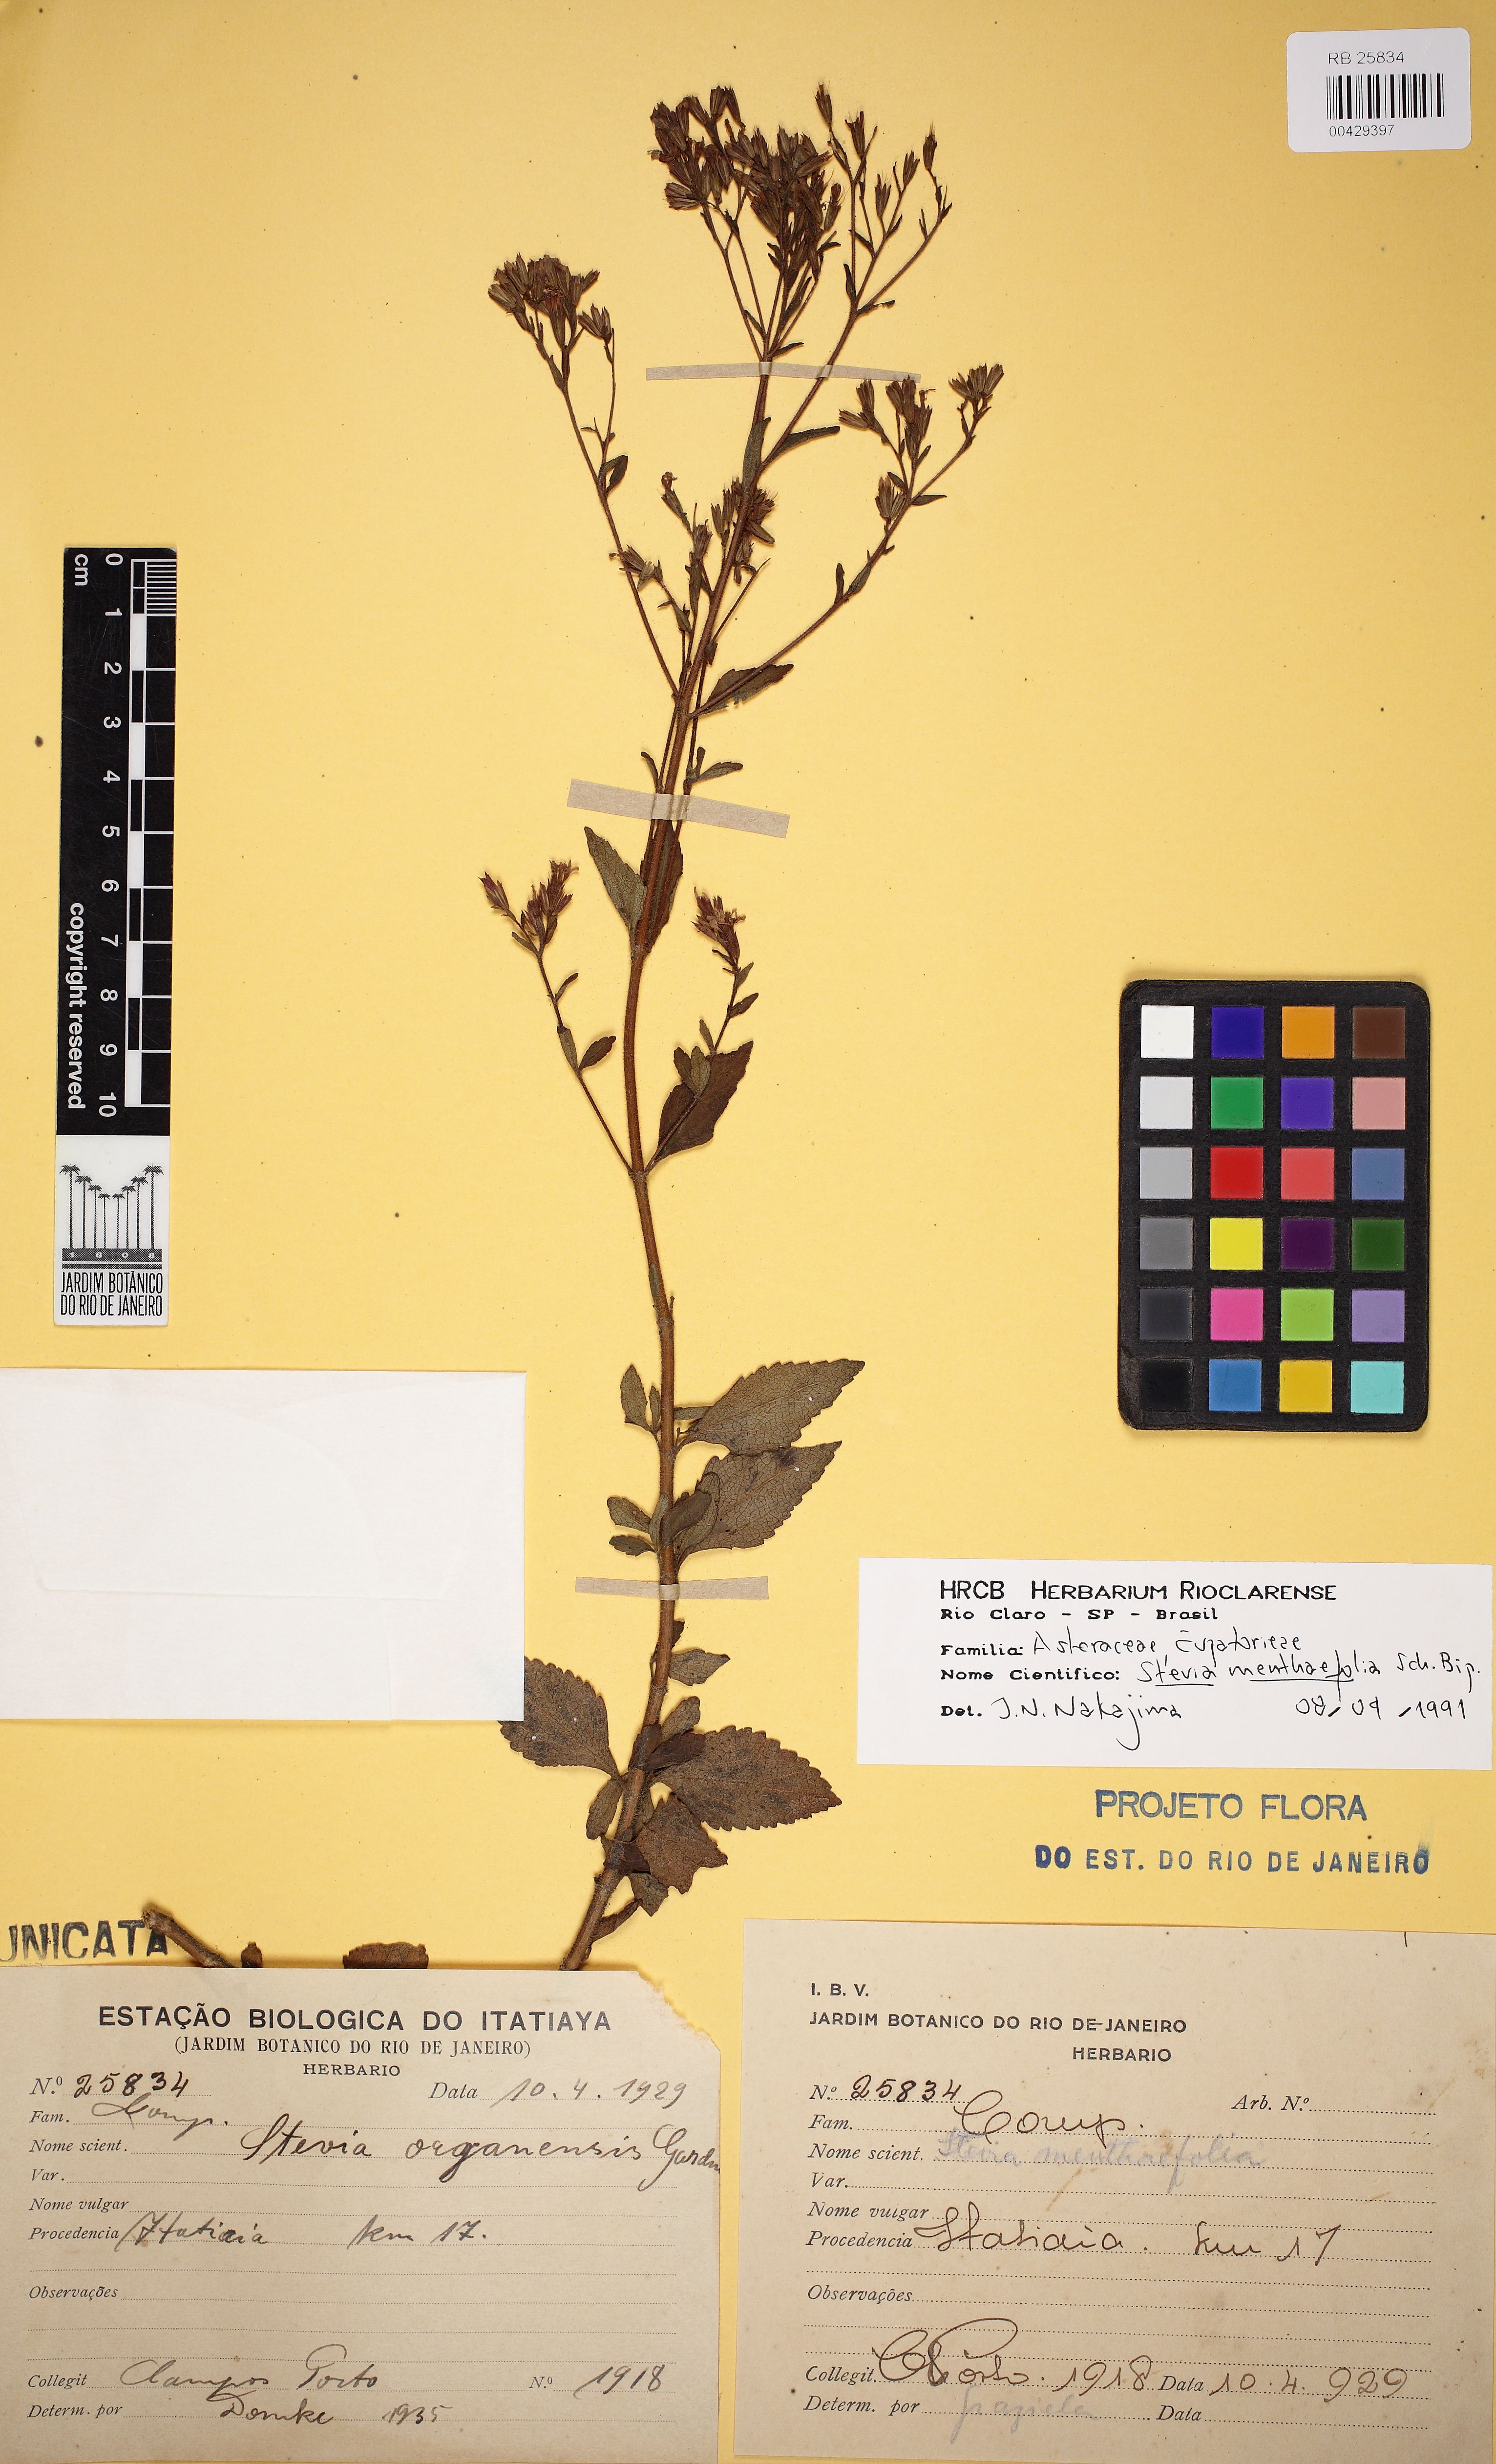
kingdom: Plantae
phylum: Tracheophyta
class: Magnoliopsida
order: Asterales
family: Asteraceae
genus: Stevia
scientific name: Stevia menthaefolia
